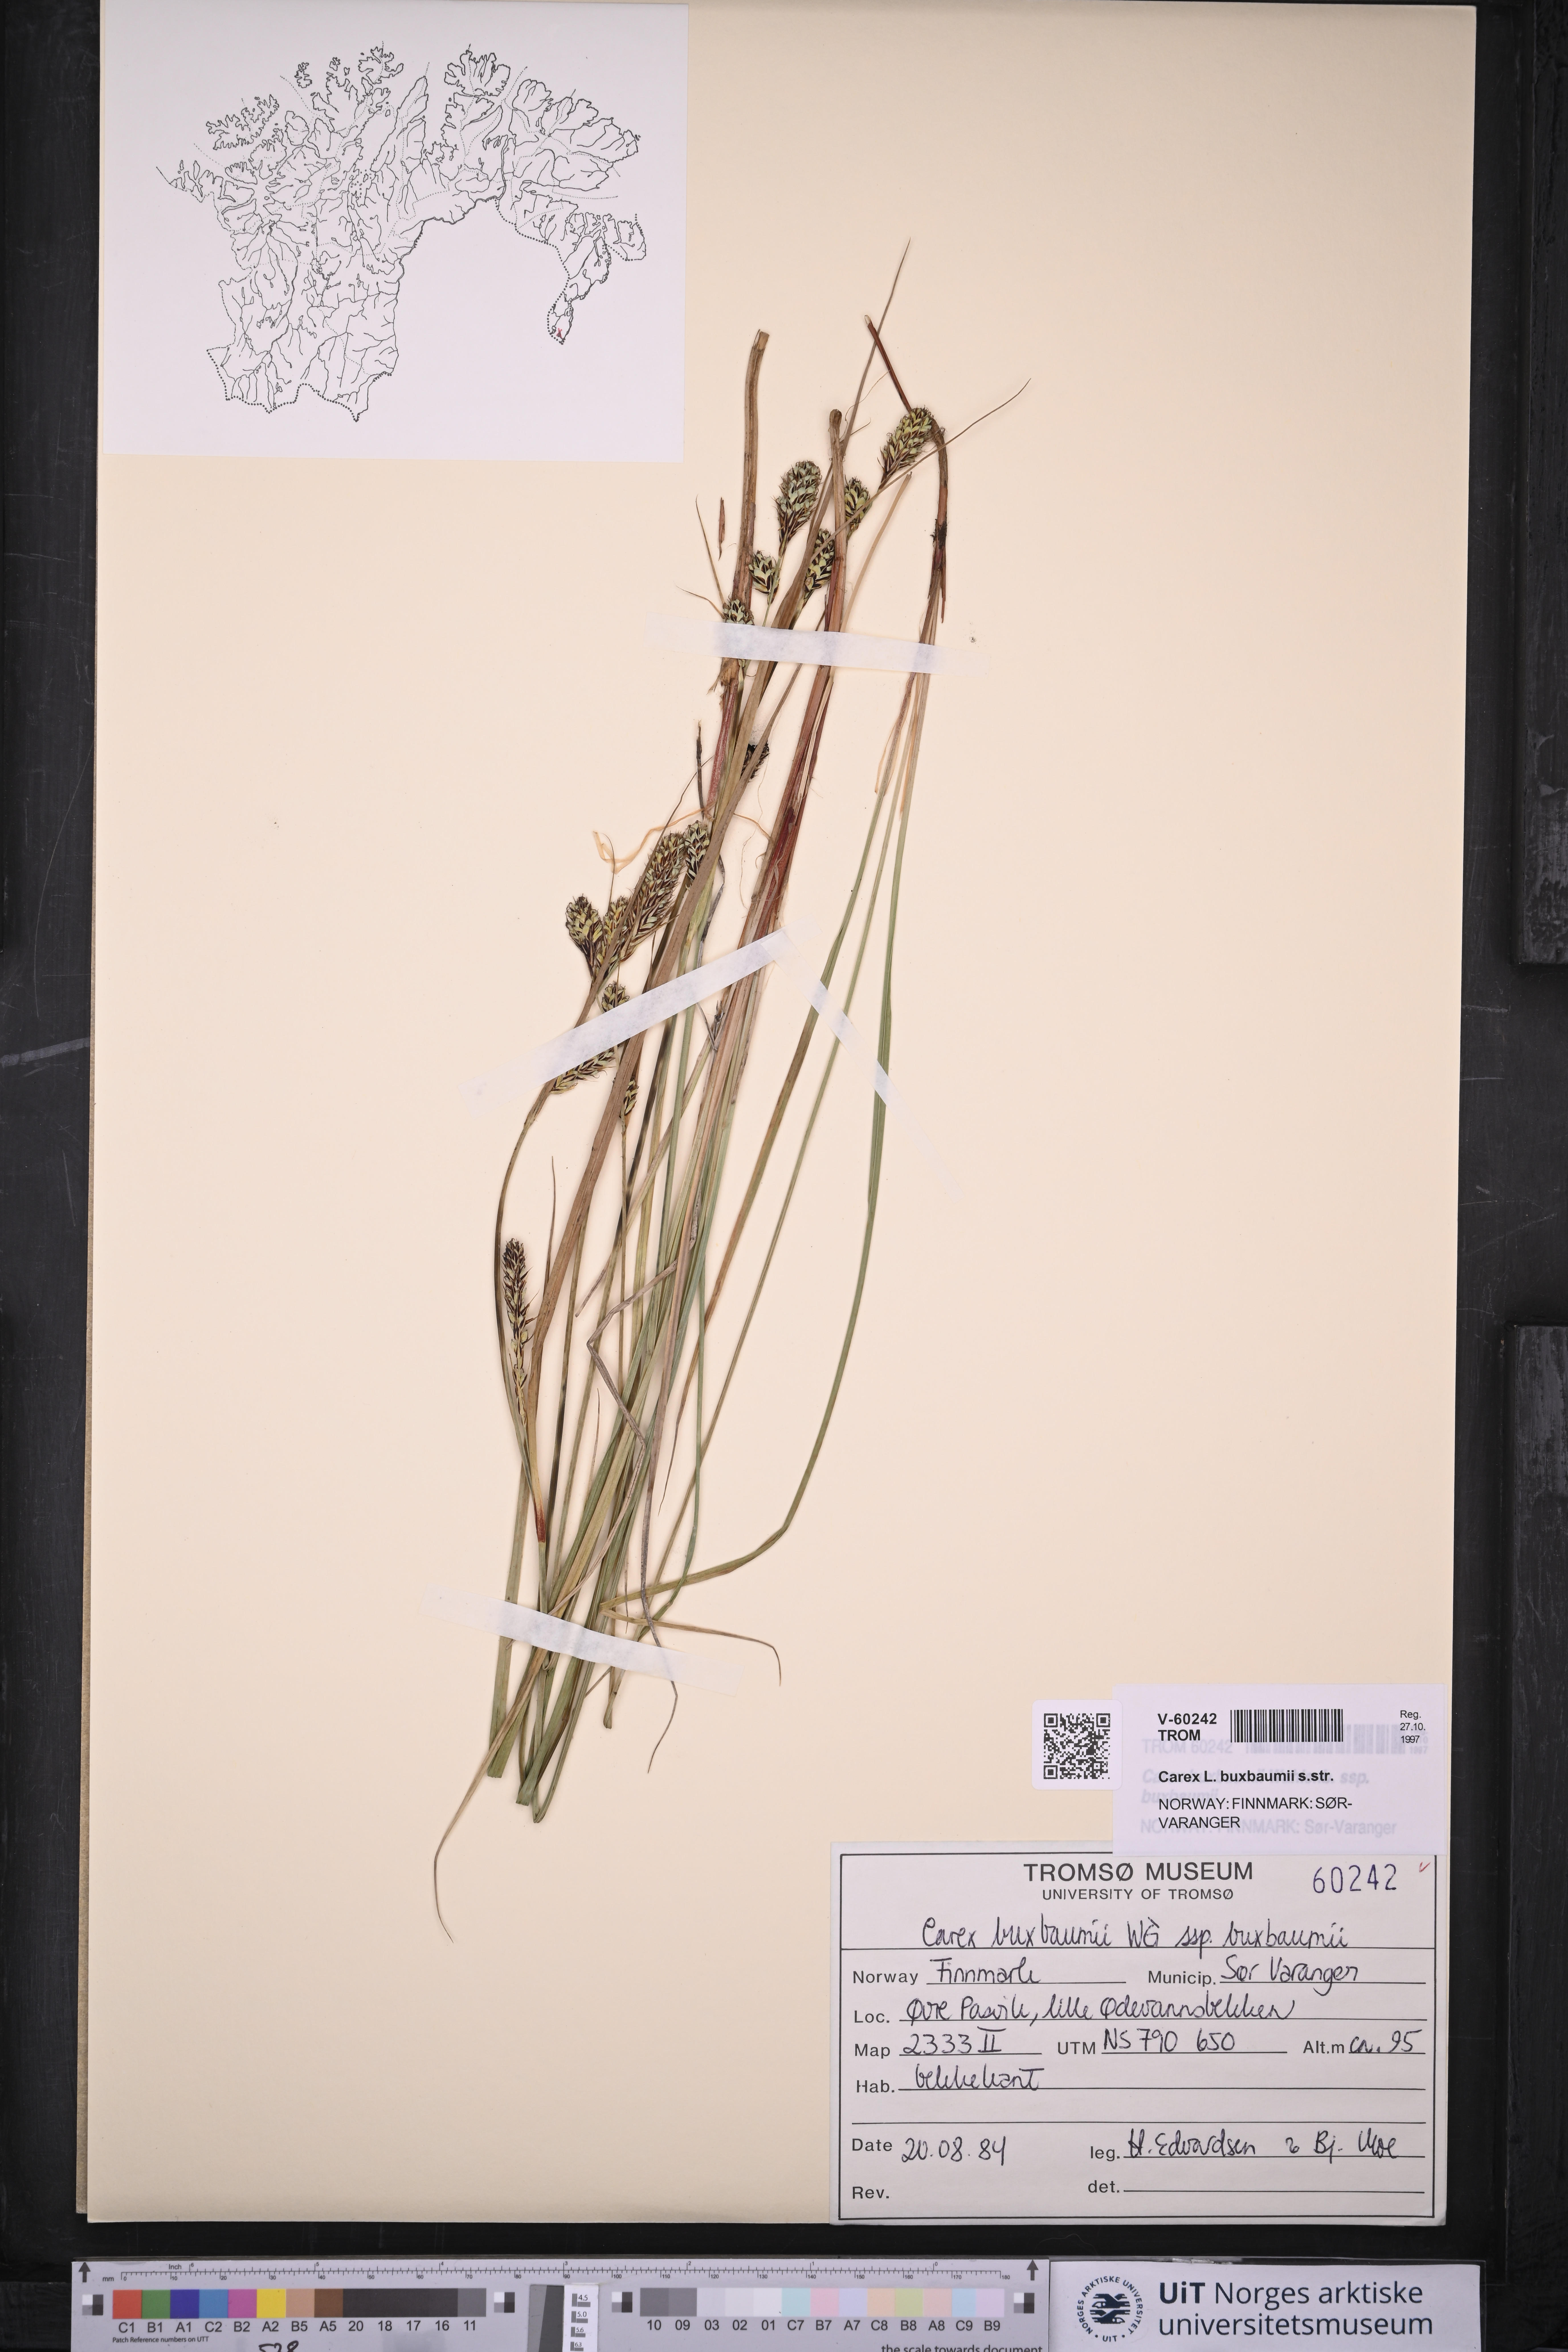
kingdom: Plantae
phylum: Tracheophyta
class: Liliopsida
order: Poales
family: Cyperaceae
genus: Carex
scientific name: Carex buxbaumii
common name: Club sedge
